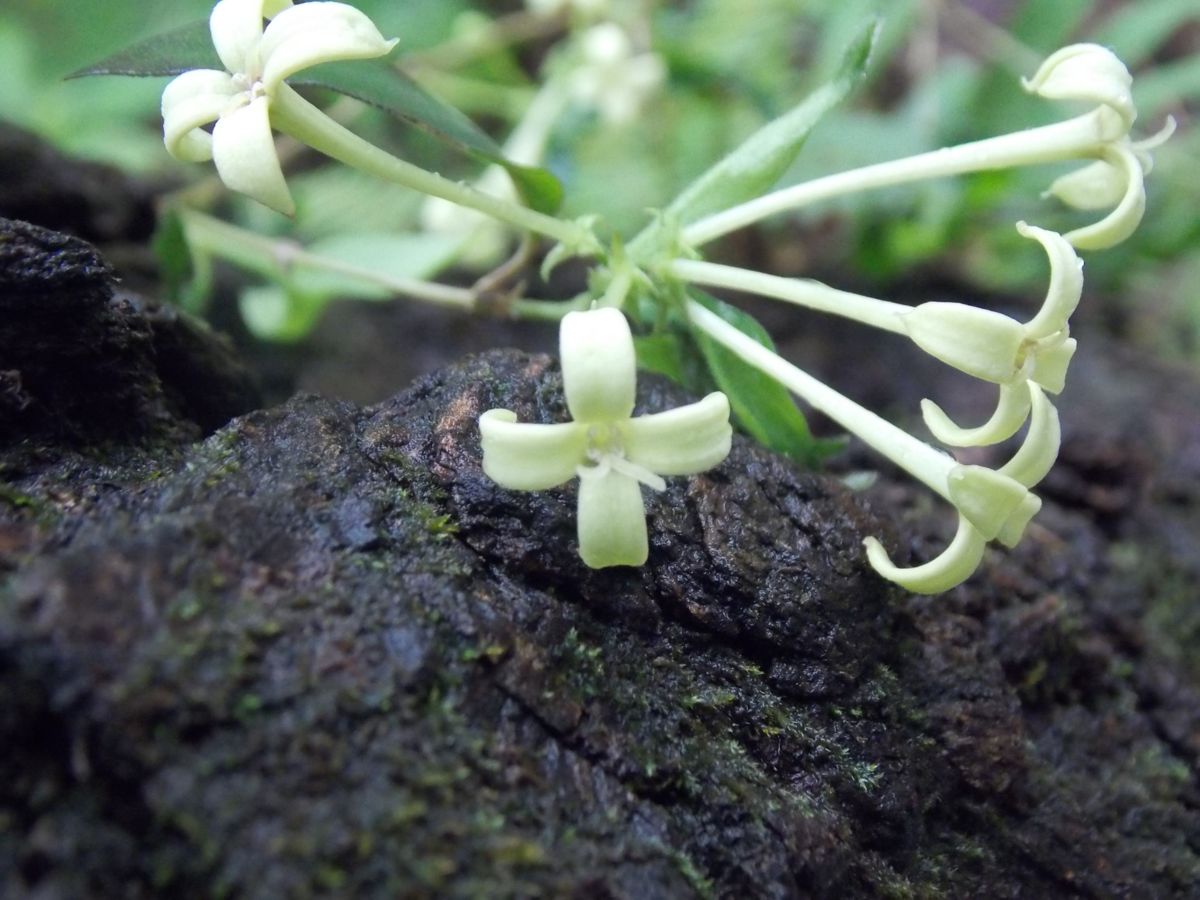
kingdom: Plantae
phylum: Tracheophyta
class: Magnoliopsida
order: Gentianales
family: Rubiaceae
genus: Bouvardia
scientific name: Bouvardia glabra
